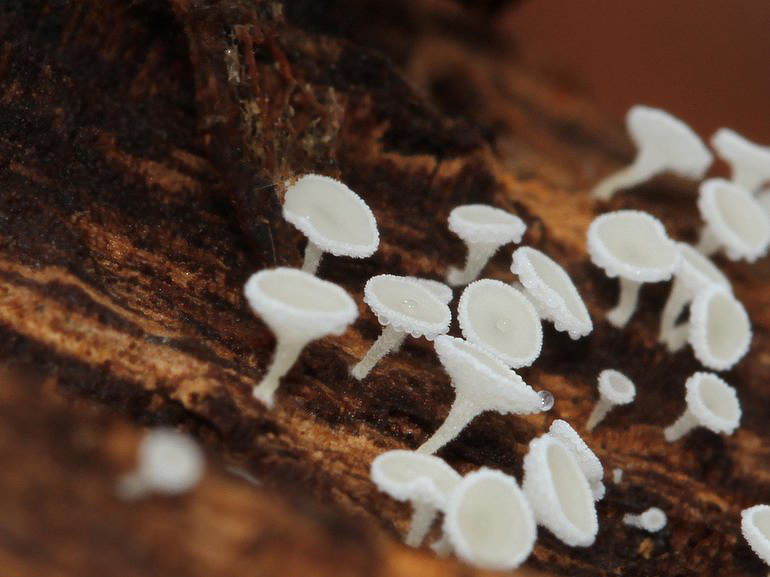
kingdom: Fungi
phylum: Ascomycota
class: Leotiomycetes
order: Helotiales
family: Lachnaceae
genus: Dasyscyphella
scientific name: Dasyscyphella nivea
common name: hvid frynseskive
